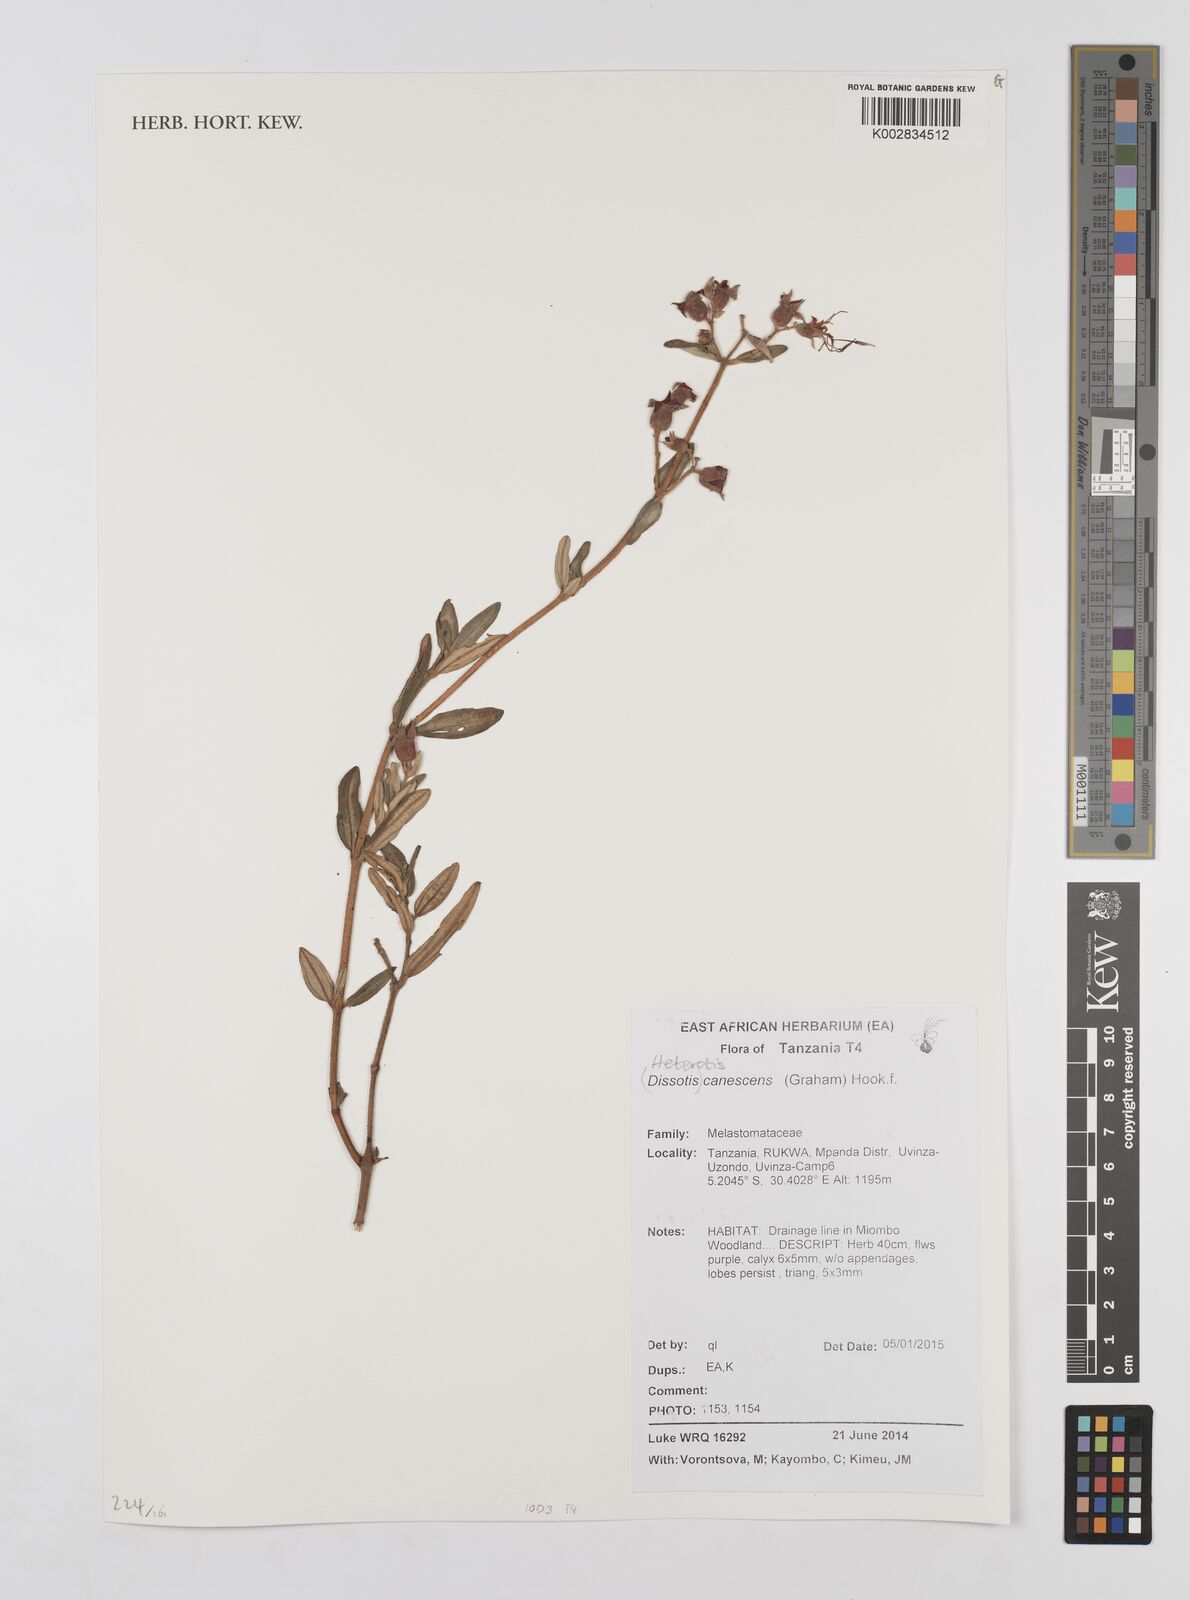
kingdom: Plantae
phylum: Tracheophyta
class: Magnoliopsida
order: Myrtales
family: Melastomataceae
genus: Argyrella
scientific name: Argyrella canescens
